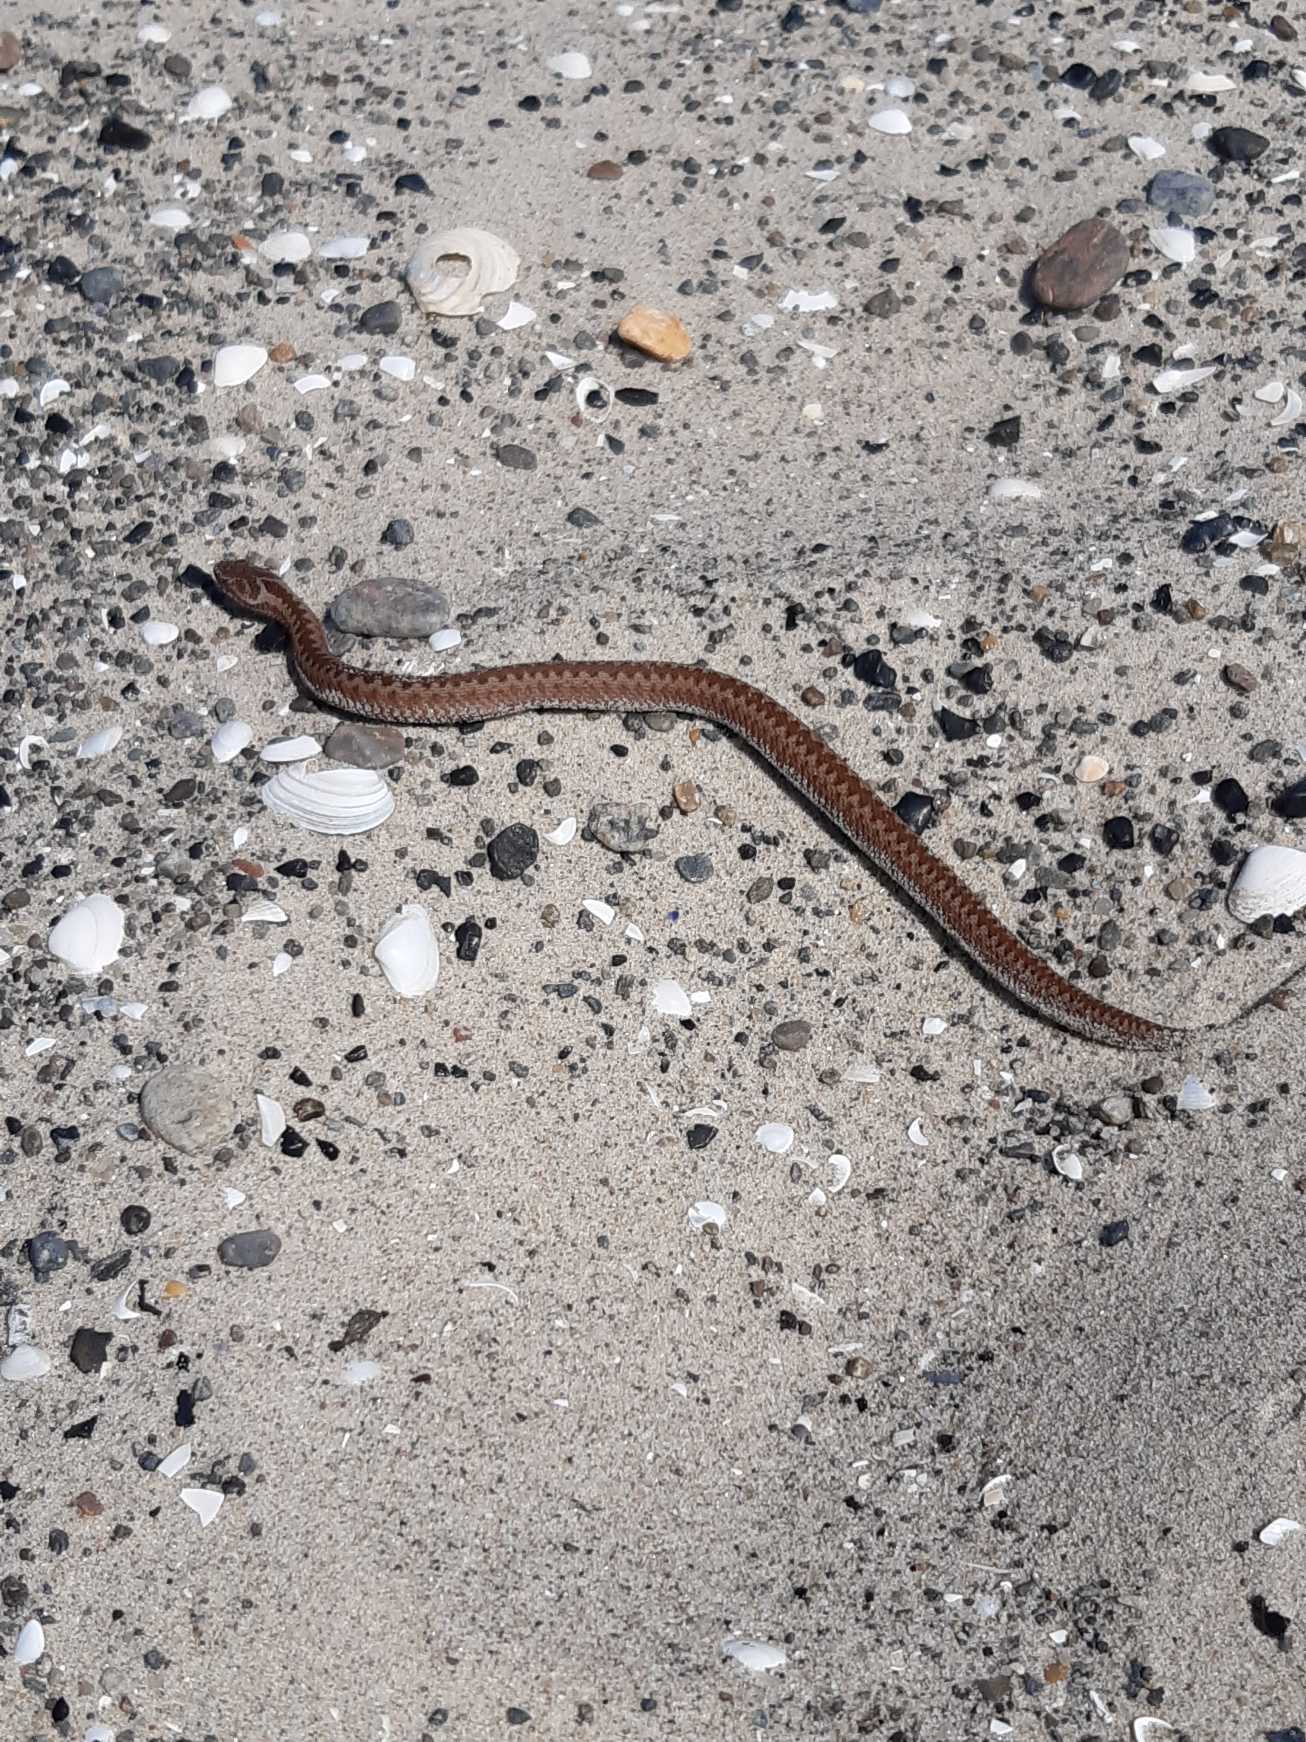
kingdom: Animalia
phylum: Chordata
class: Squamata
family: Viperidae
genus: Vipera
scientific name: Vipera berus
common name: Hugorm
